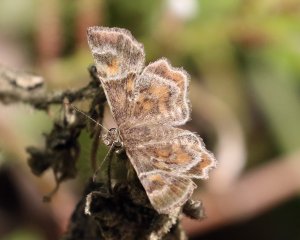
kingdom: Animalia
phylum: Arthropoda
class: Insecta
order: Lepidoptera
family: Hesperiidae
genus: Systasea
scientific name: Systasea pulverulenta
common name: Texas Powdered-Skipper
